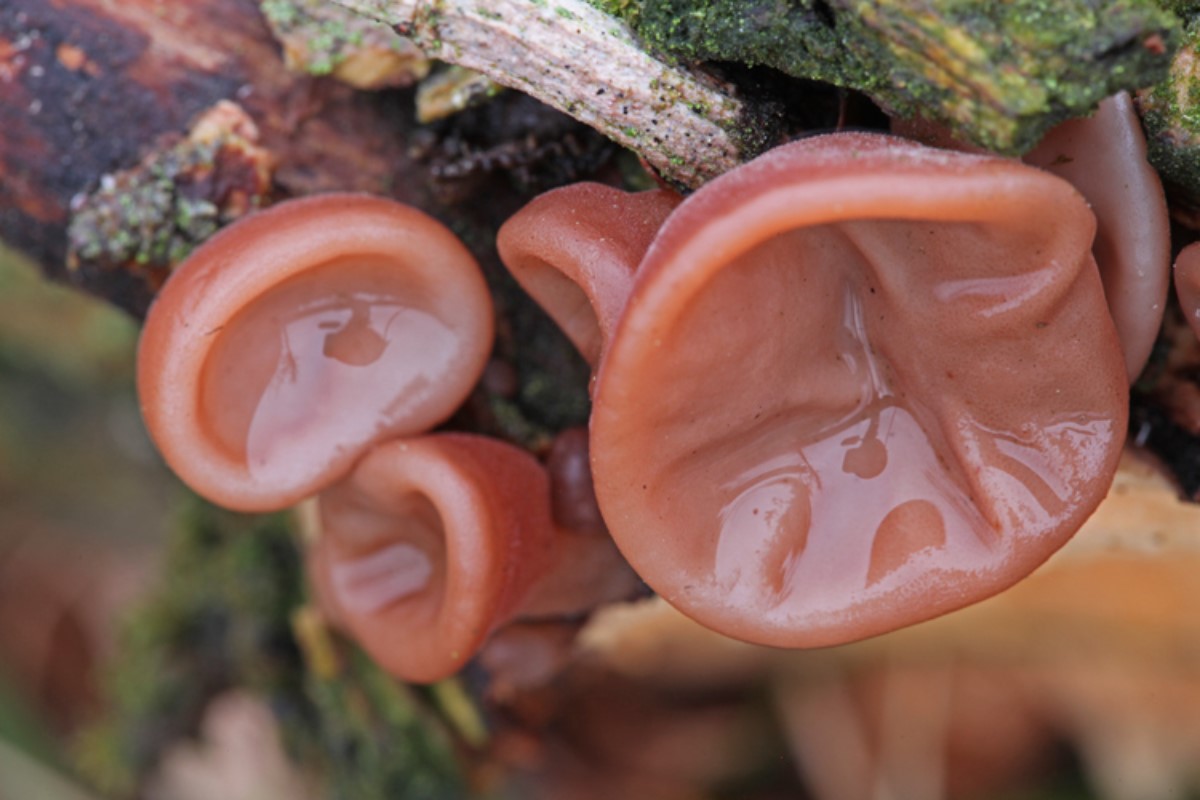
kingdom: Fungi
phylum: Basidiomycota
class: Agaricomycetes
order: Auriculariales
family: Auriculariaceae
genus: Auricularia
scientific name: Auricularia auricula-judae
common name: almindelig judasøre
